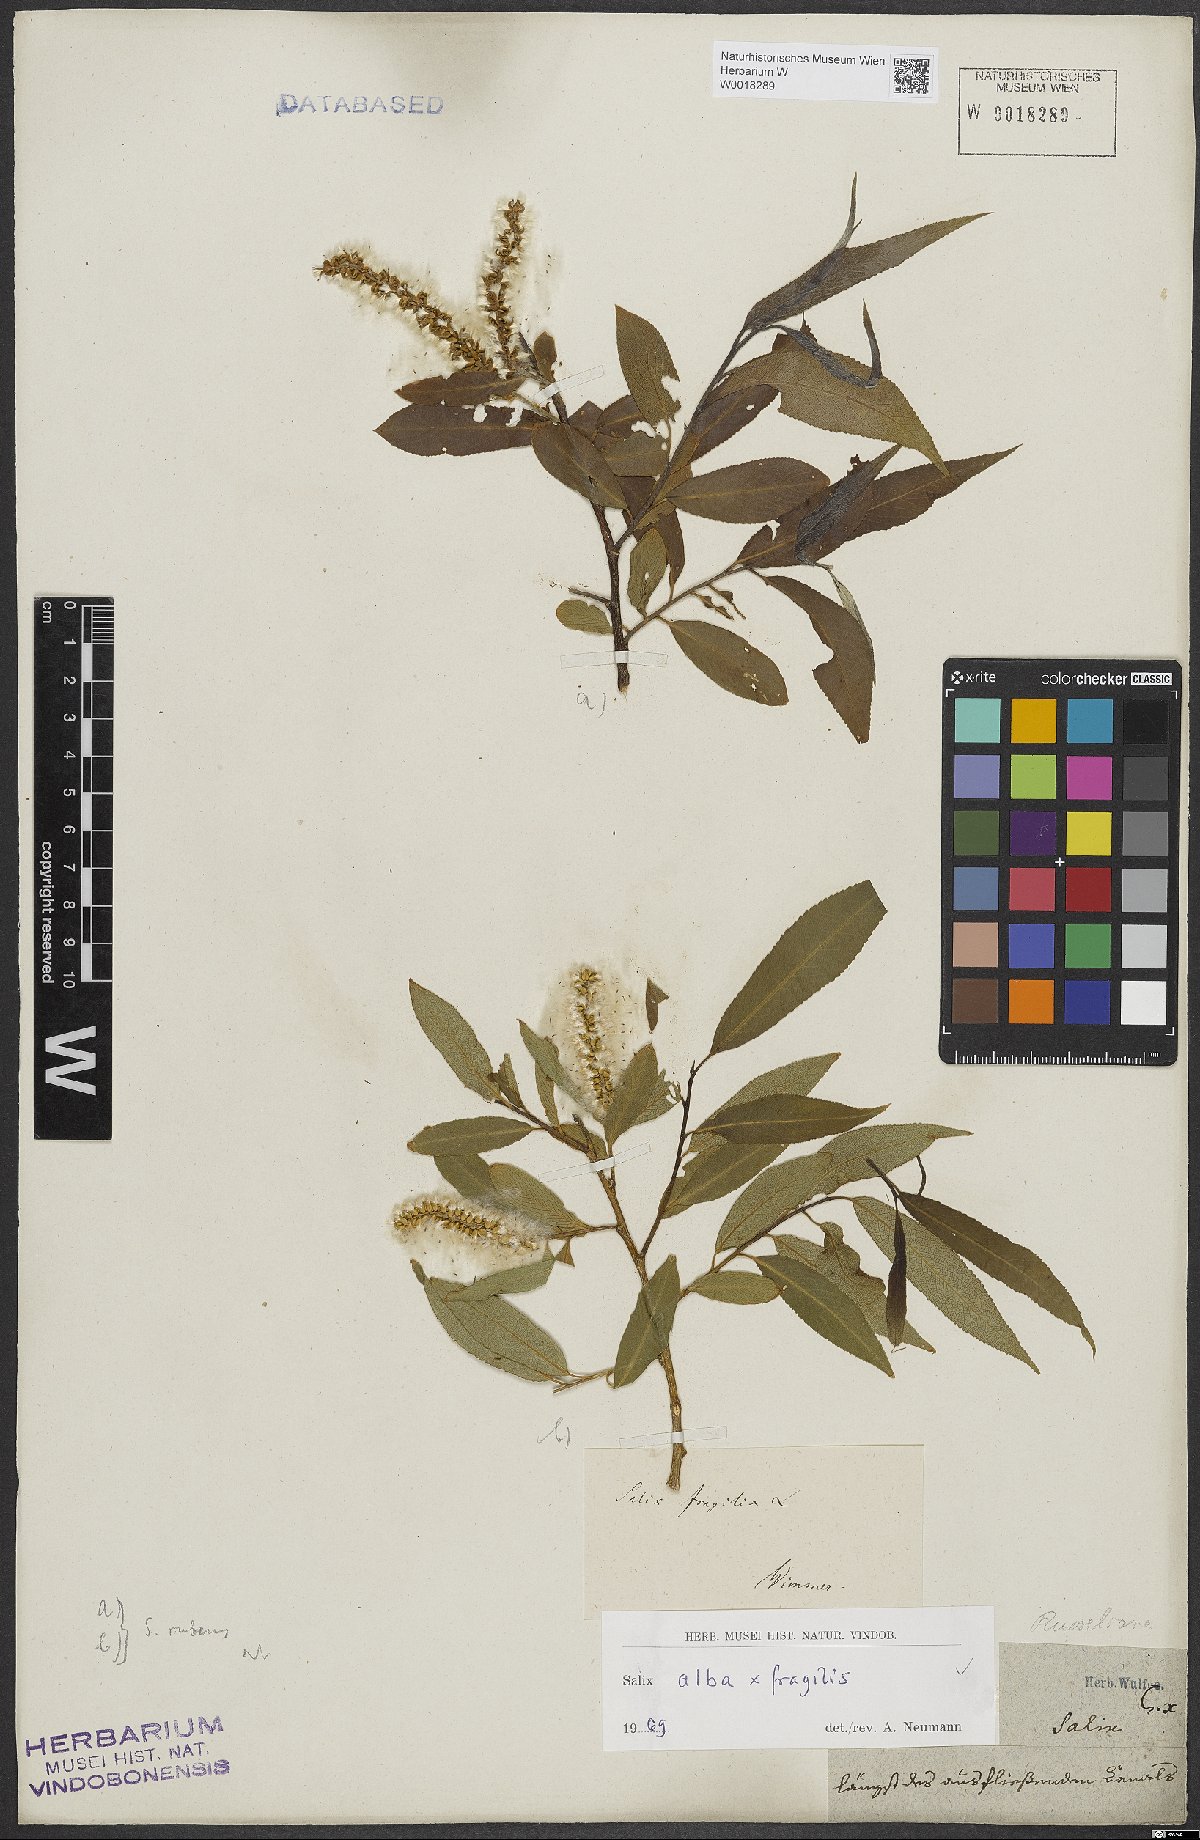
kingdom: Plantae
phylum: Tracheophyta
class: Magnoliopsida
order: Malpighiales
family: Salicaceae
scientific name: Salicaceae
